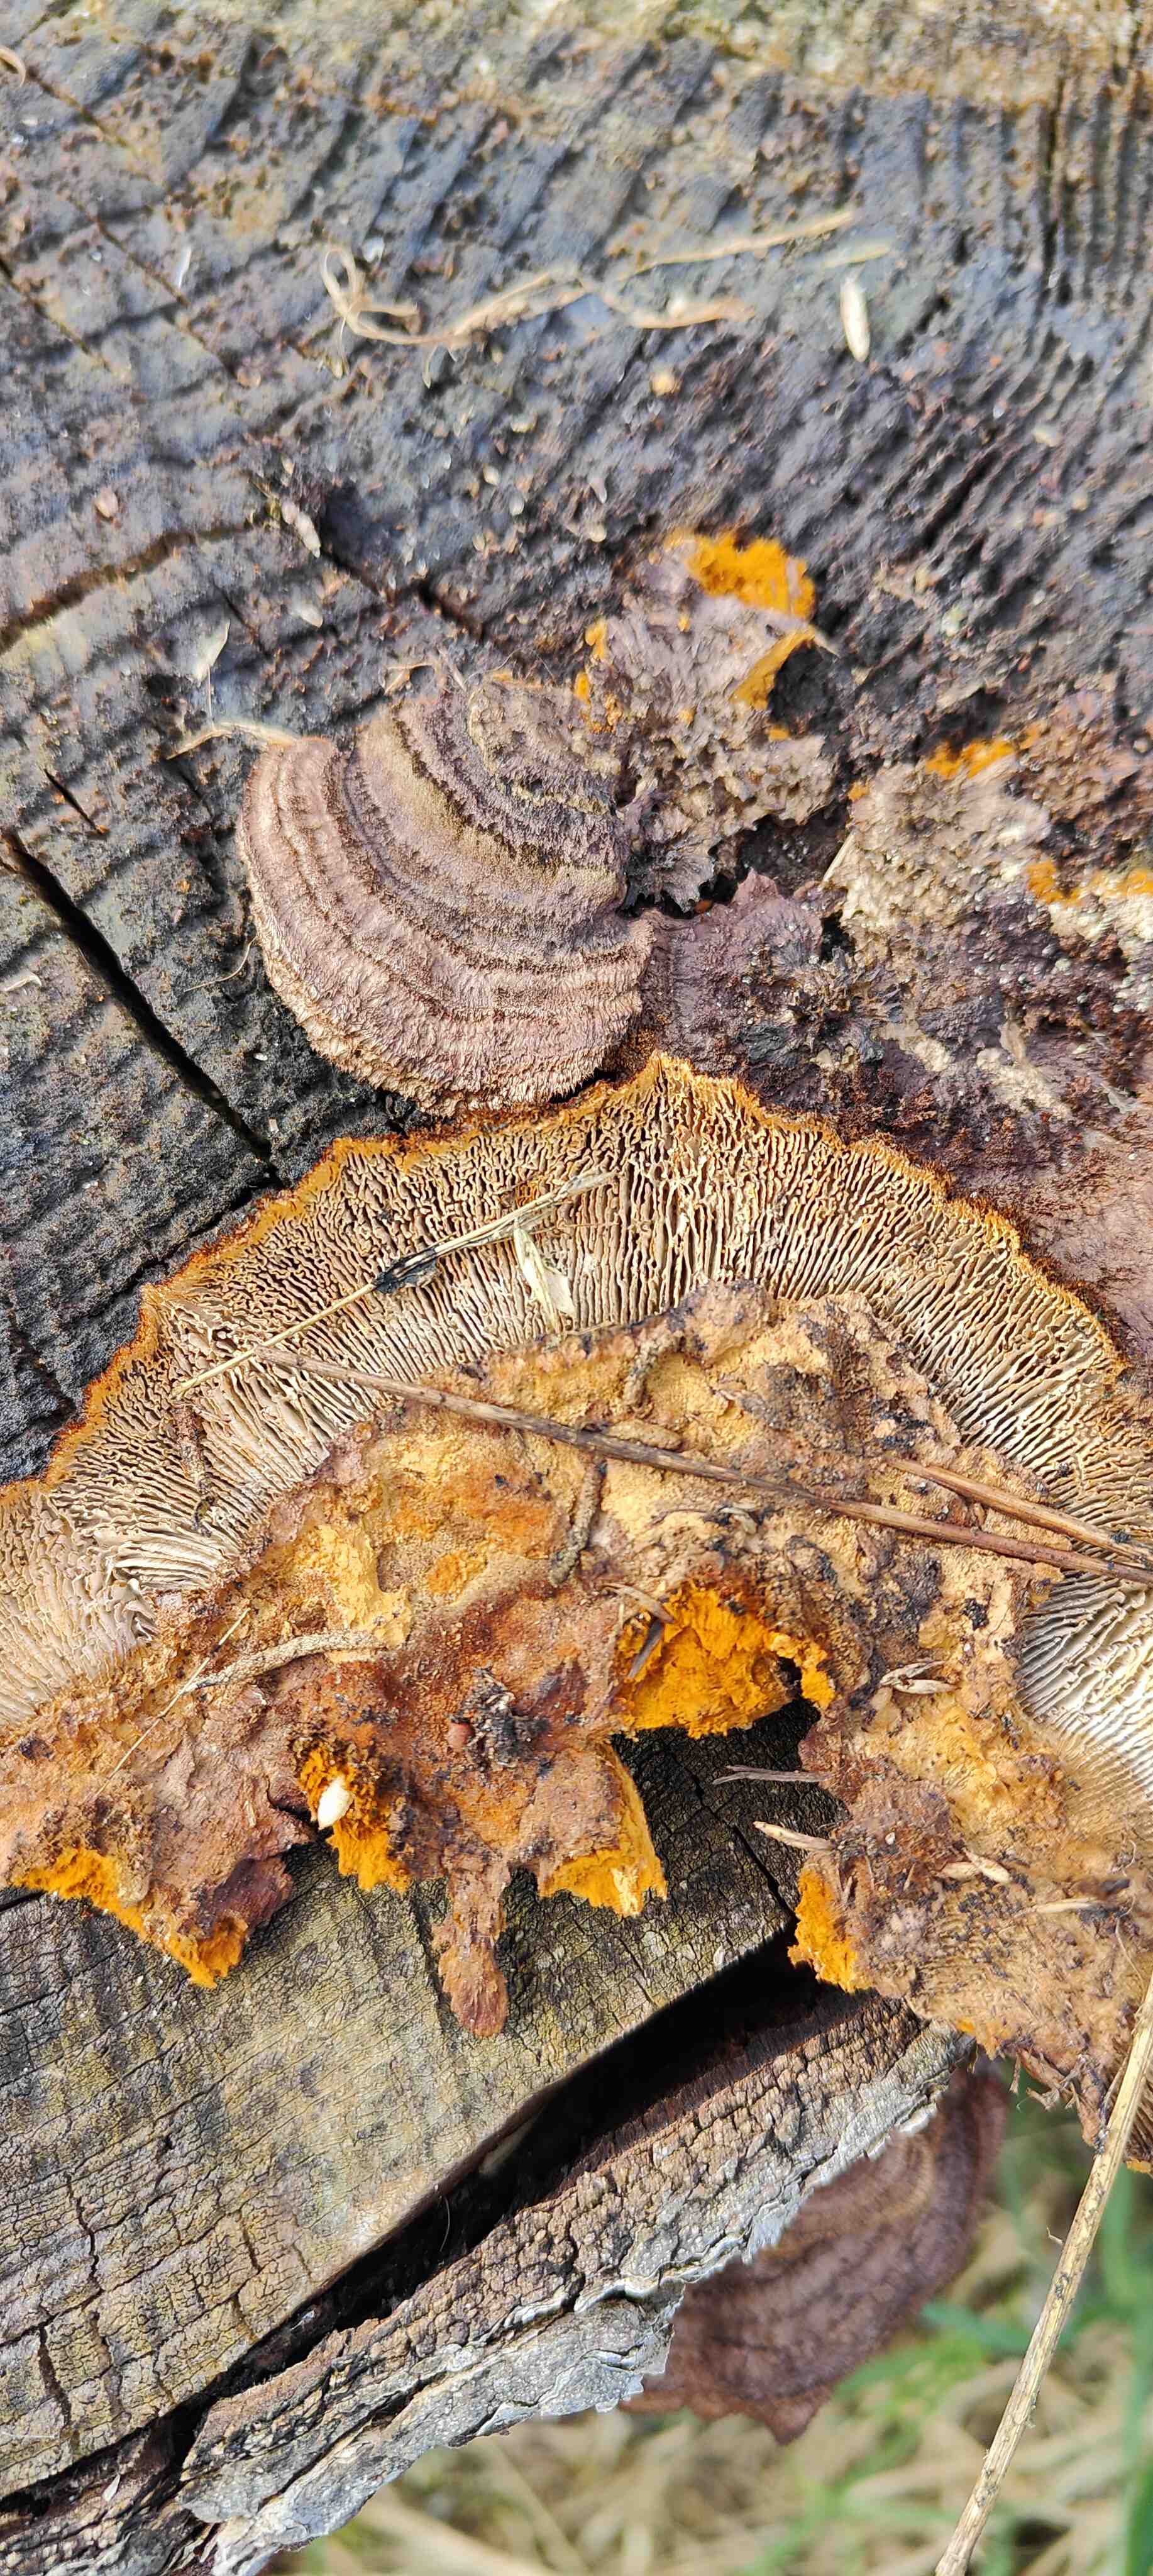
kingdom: Fungi
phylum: Basidiomycota
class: Agaricomycetes
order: Gloeophyllales
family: Gloeophyllaceae
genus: Gloeophyllum
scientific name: Gloeophyllum sepiarium
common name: fyrre-korkhat
